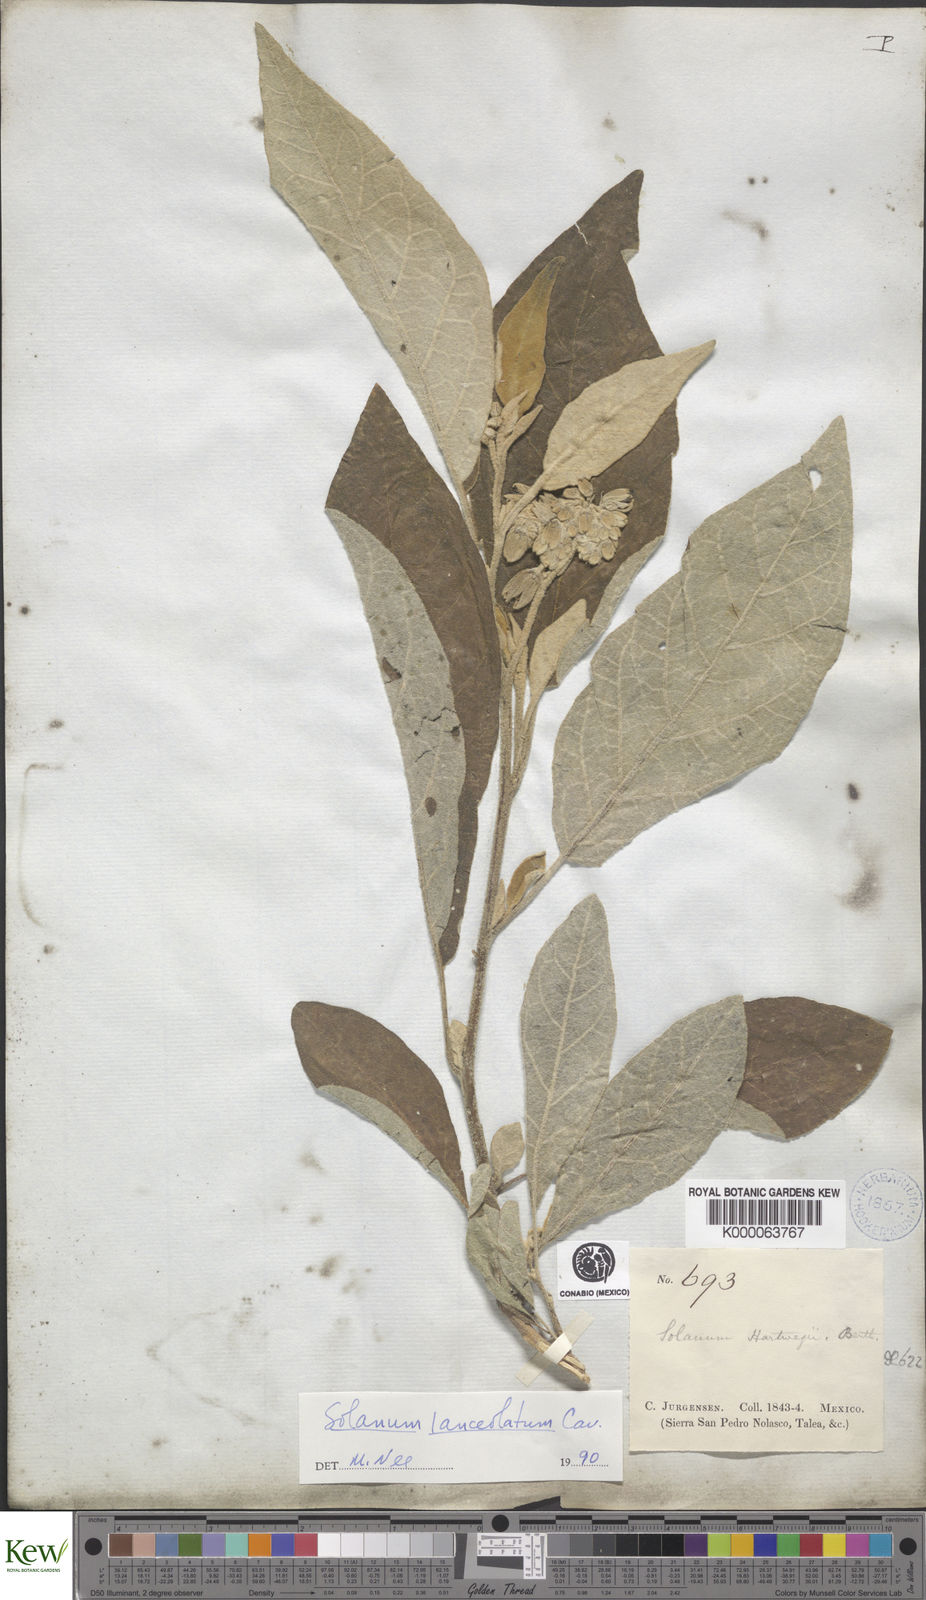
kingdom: Plantae
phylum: Tracheophyta
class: Magnoliopsida
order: Solanales
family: Solanaceae
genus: Solanum
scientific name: Solanum lanceolatum
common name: Orangeberry nightshade
